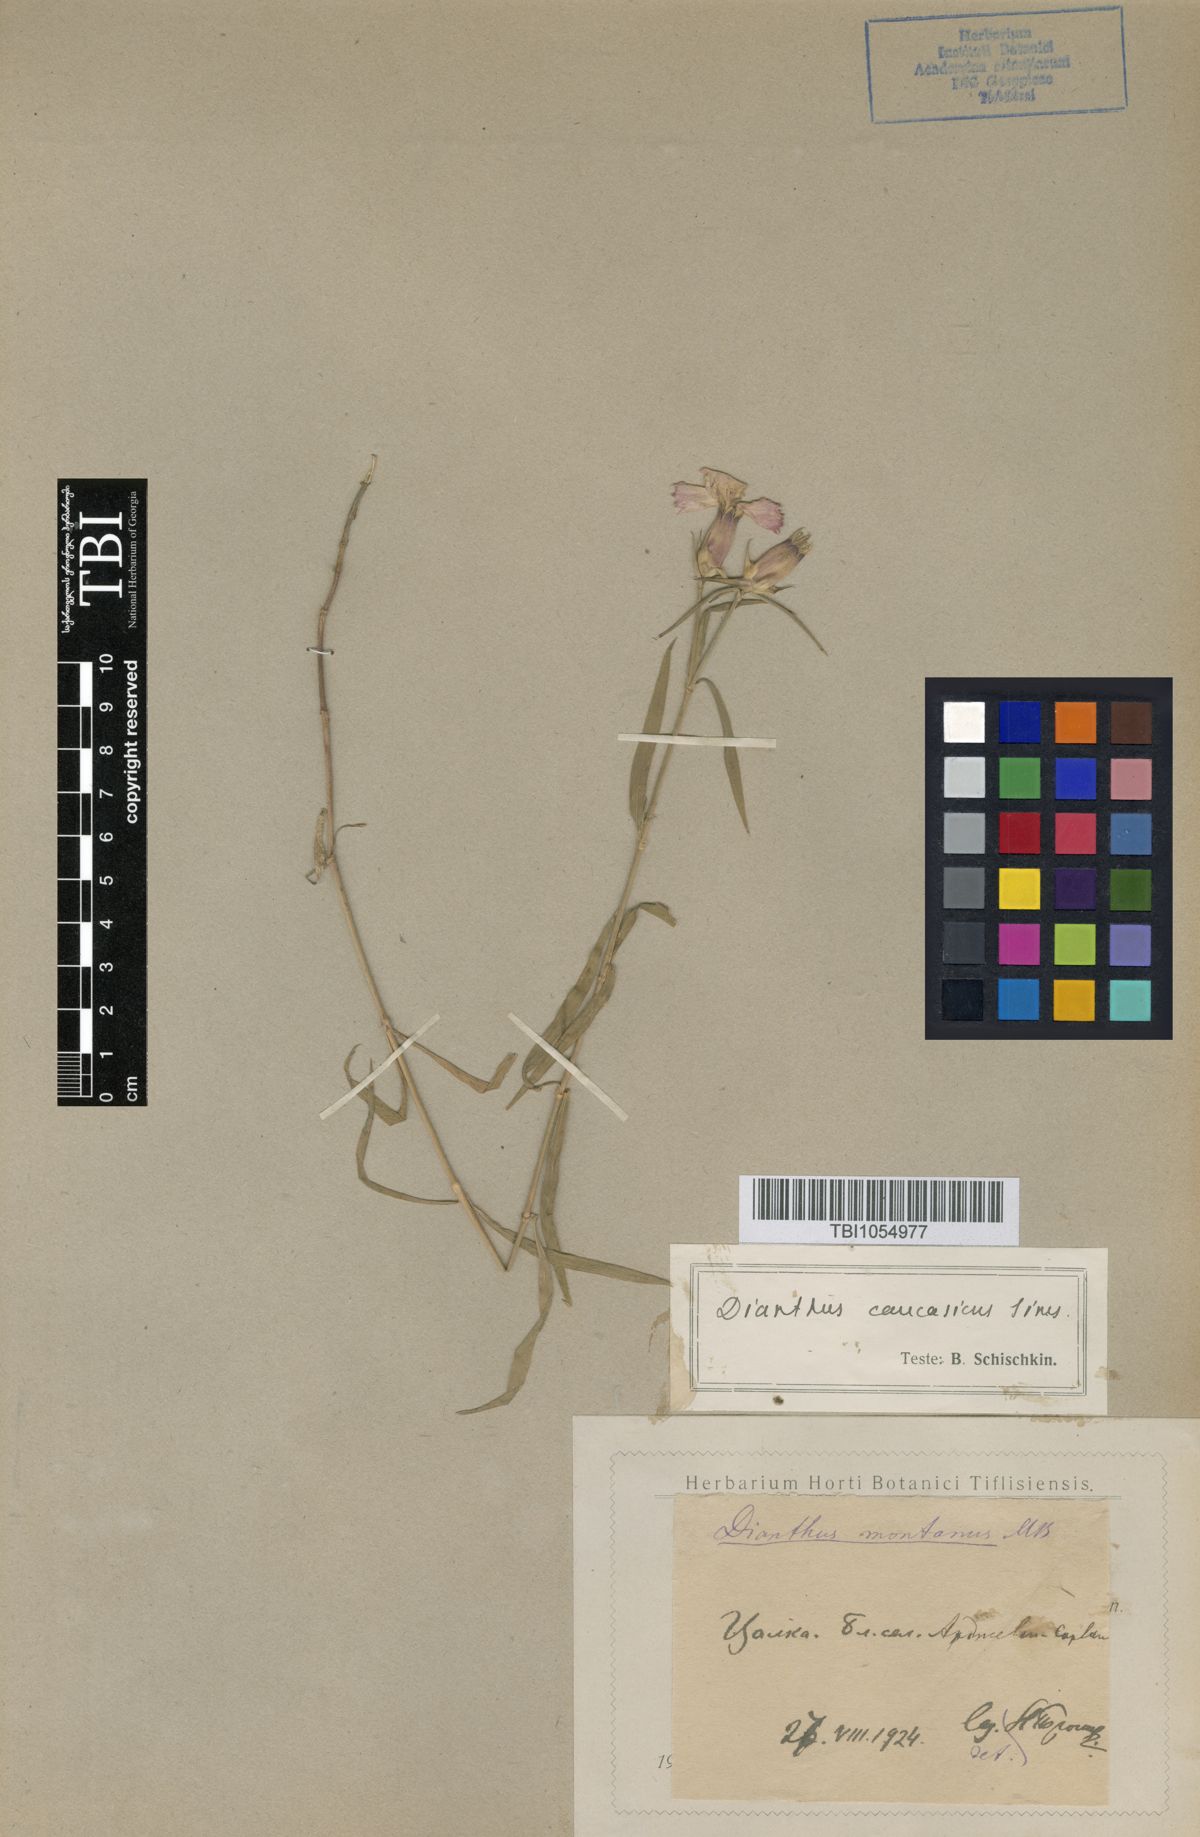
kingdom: Plantae
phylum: Tracheophyta
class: Magnoliopsida
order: Caryophyllales
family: Caryophyllaceae
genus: Dianthus
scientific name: Dianthus caucaseus
